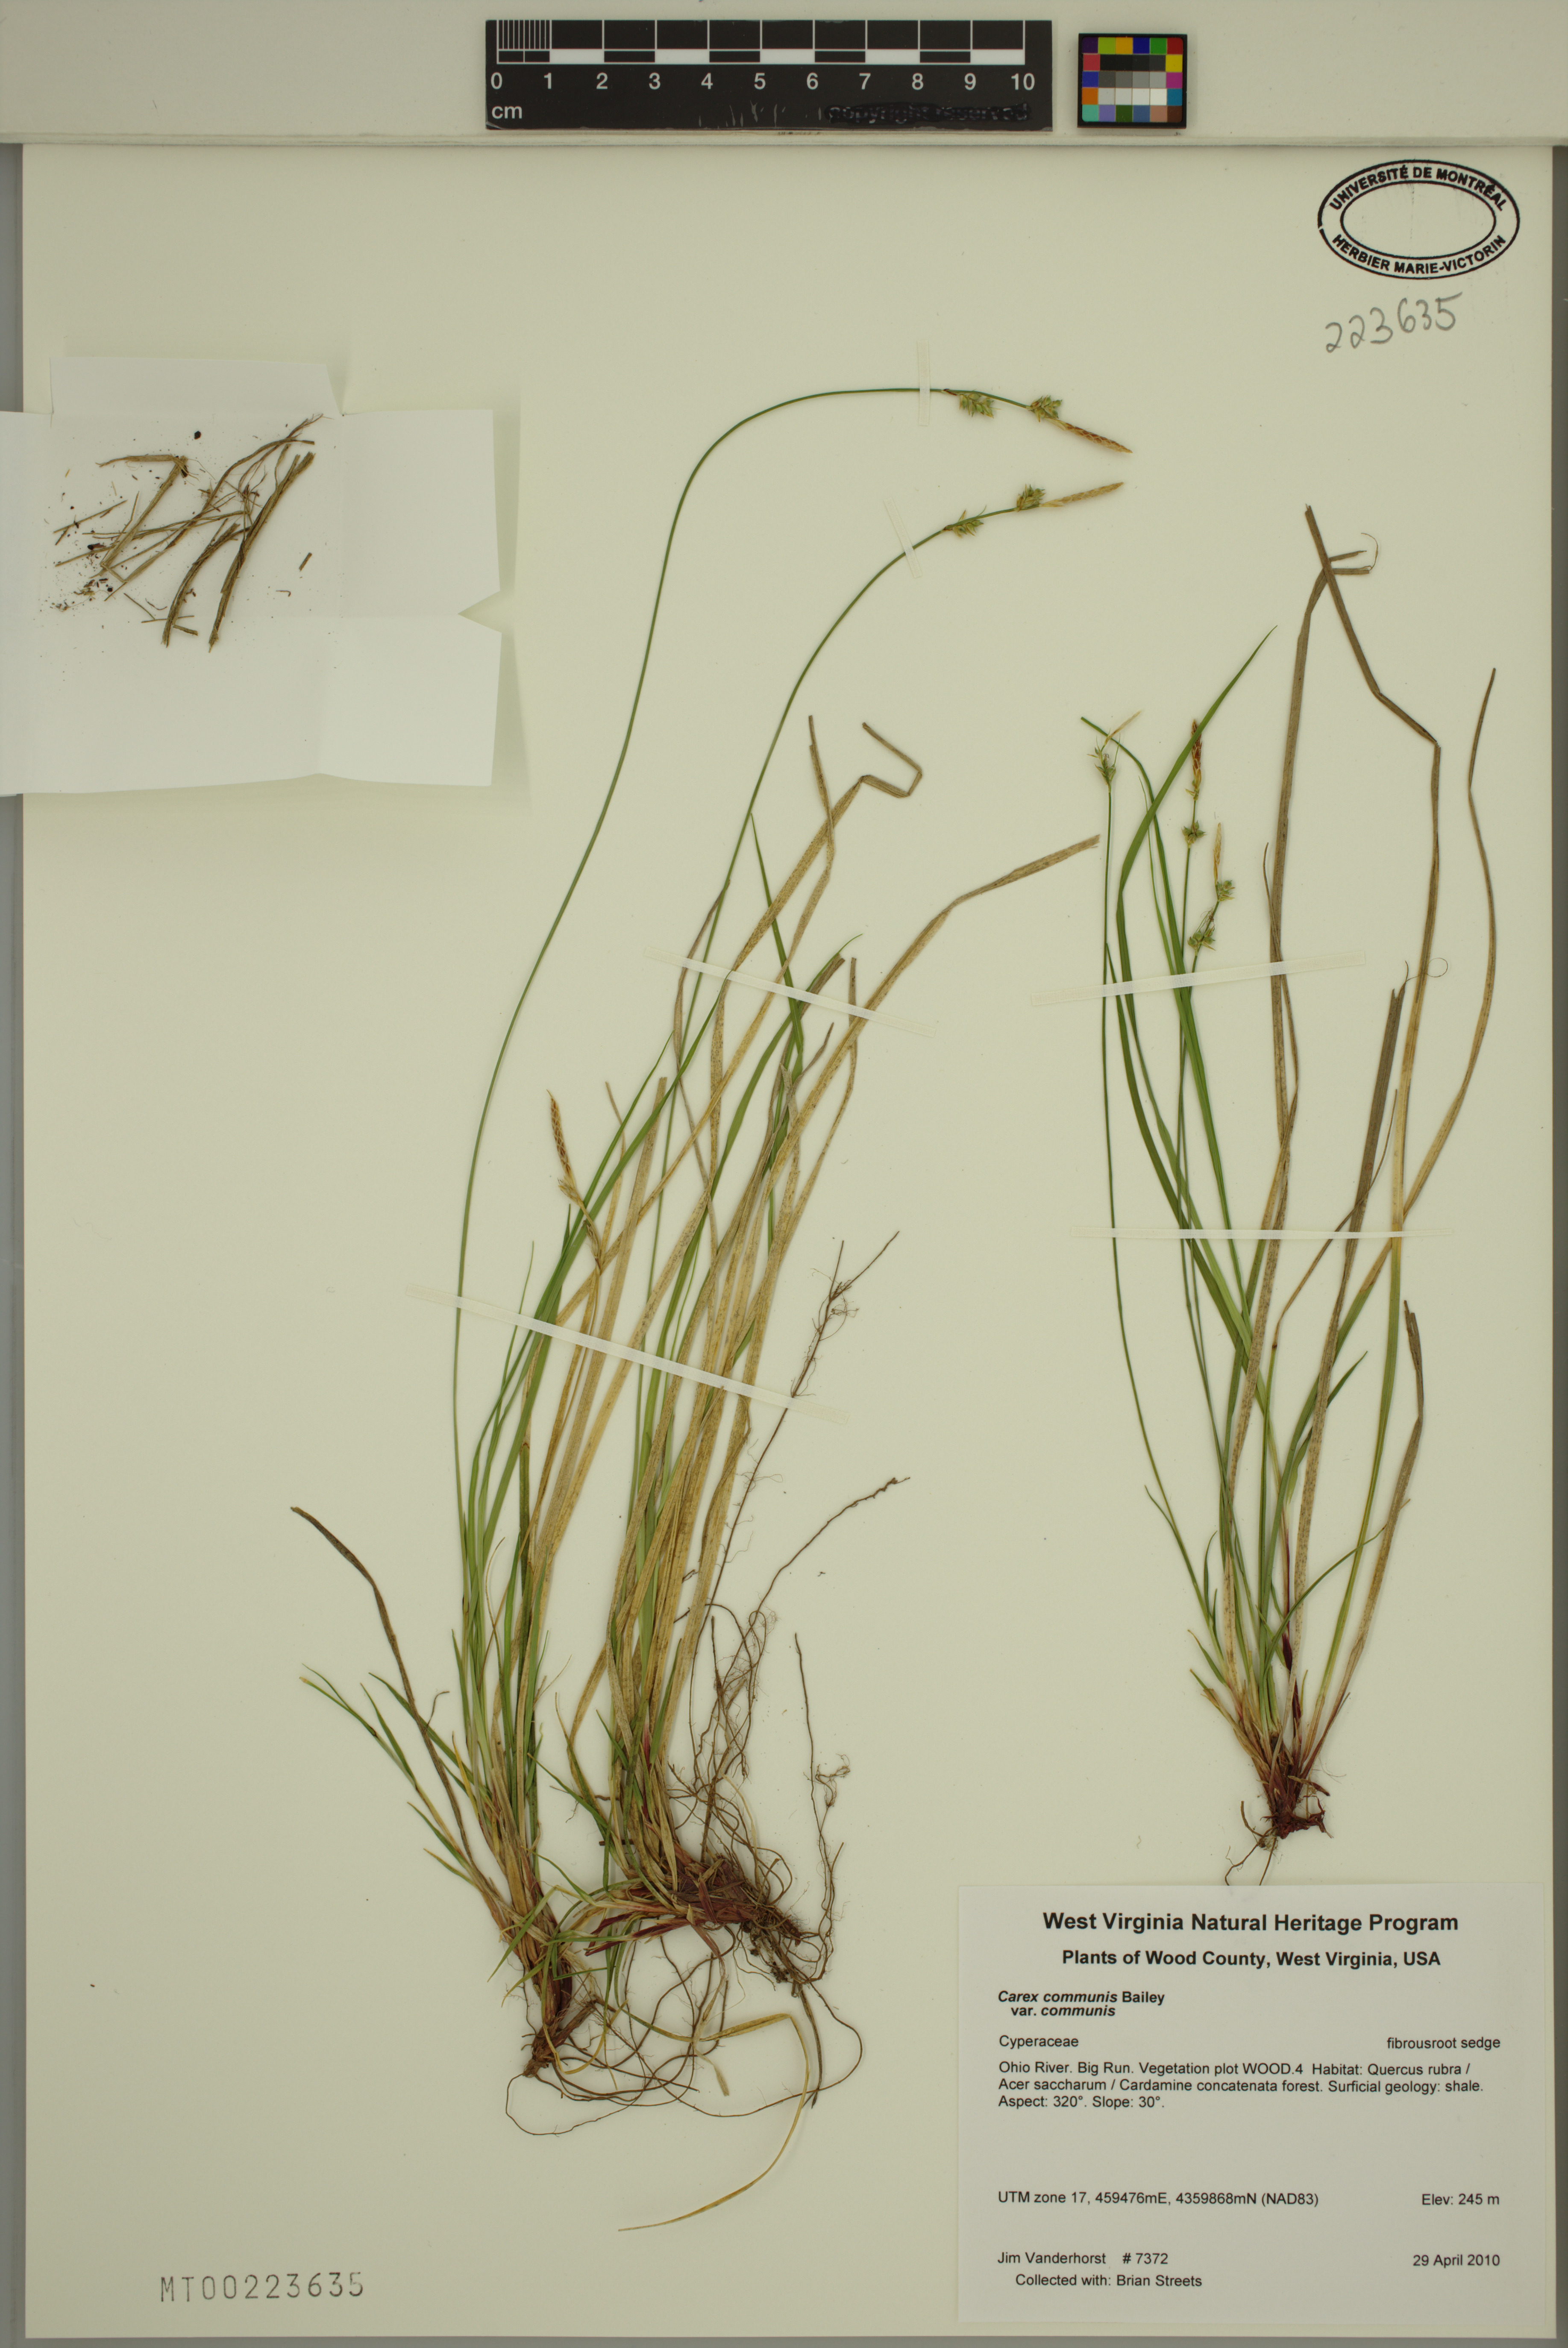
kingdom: Plantae
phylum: Tracheophyta
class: Liliopsida
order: Poales
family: Cyperaceae
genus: Carex
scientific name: Carex communis
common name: Colonial oak sedge
